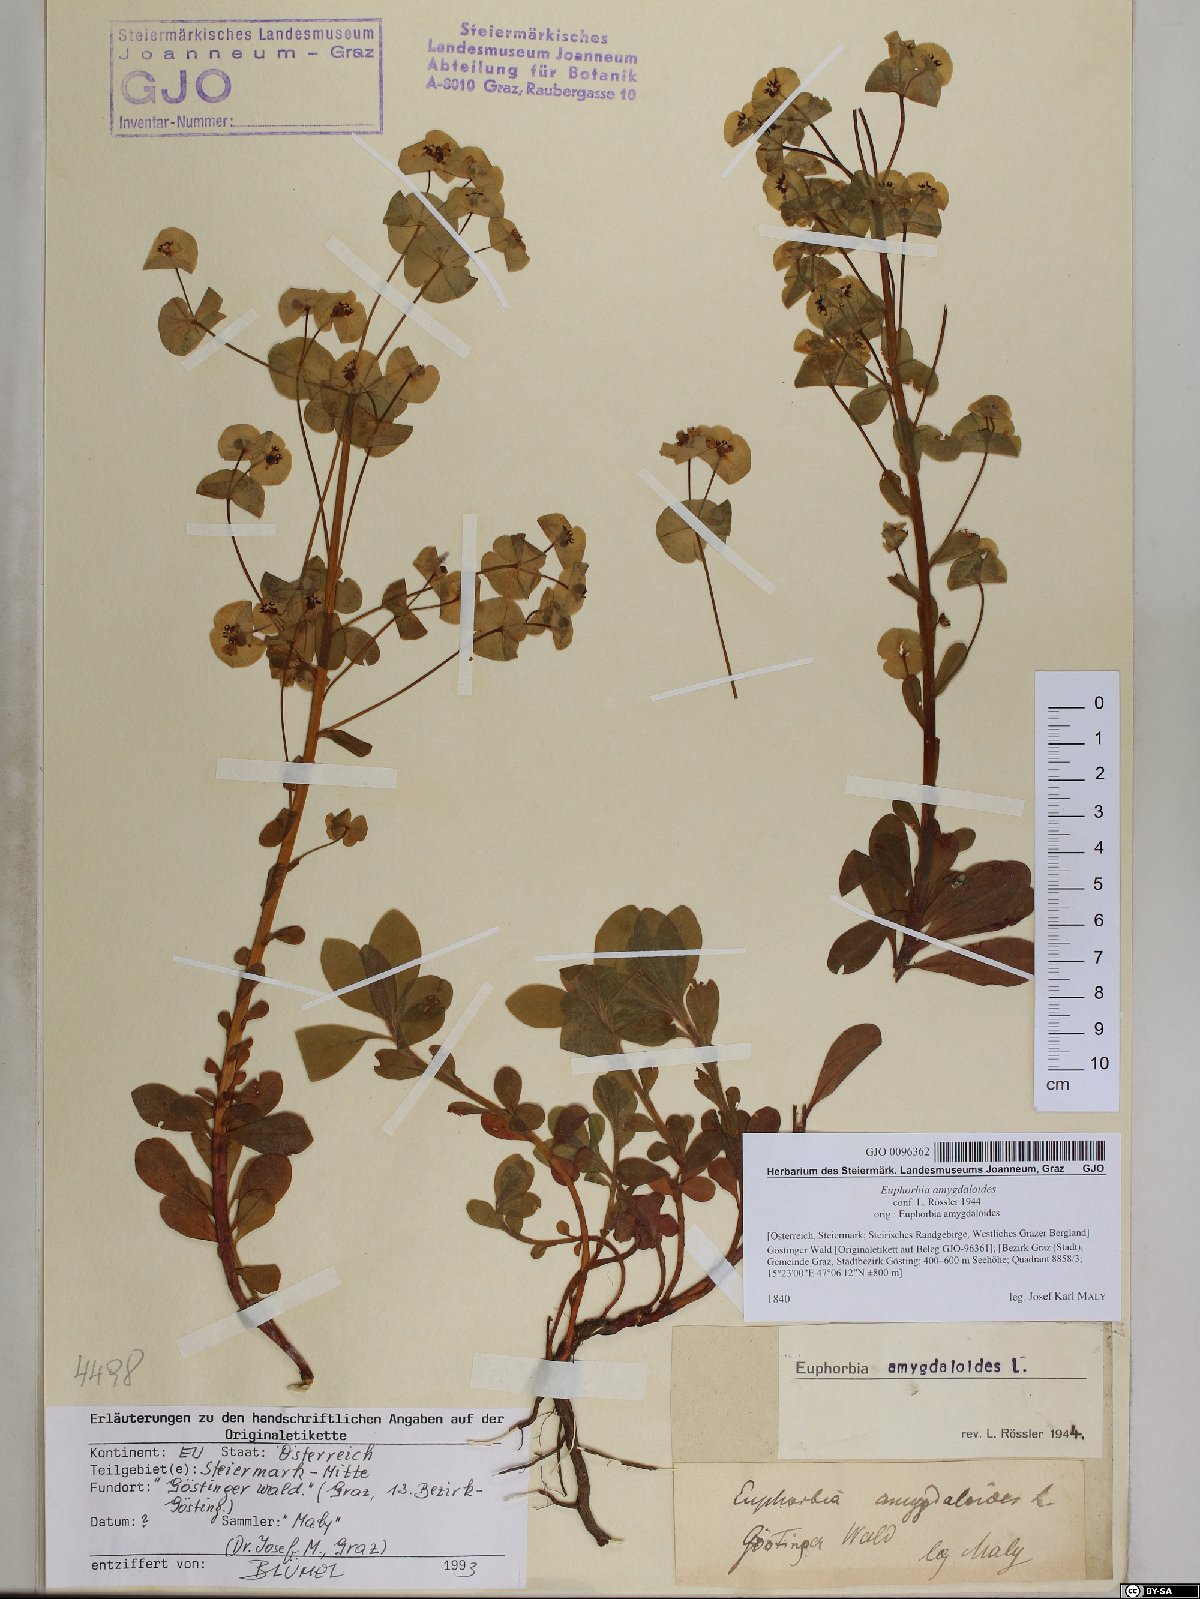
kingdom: Plantae
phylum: Tracheophyta
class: Magnoliopsida
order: Malpighiales
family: Euphorbiaceae
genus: Euphorbia
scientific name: Euphorbia amygdaloides
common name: Wood spurge
